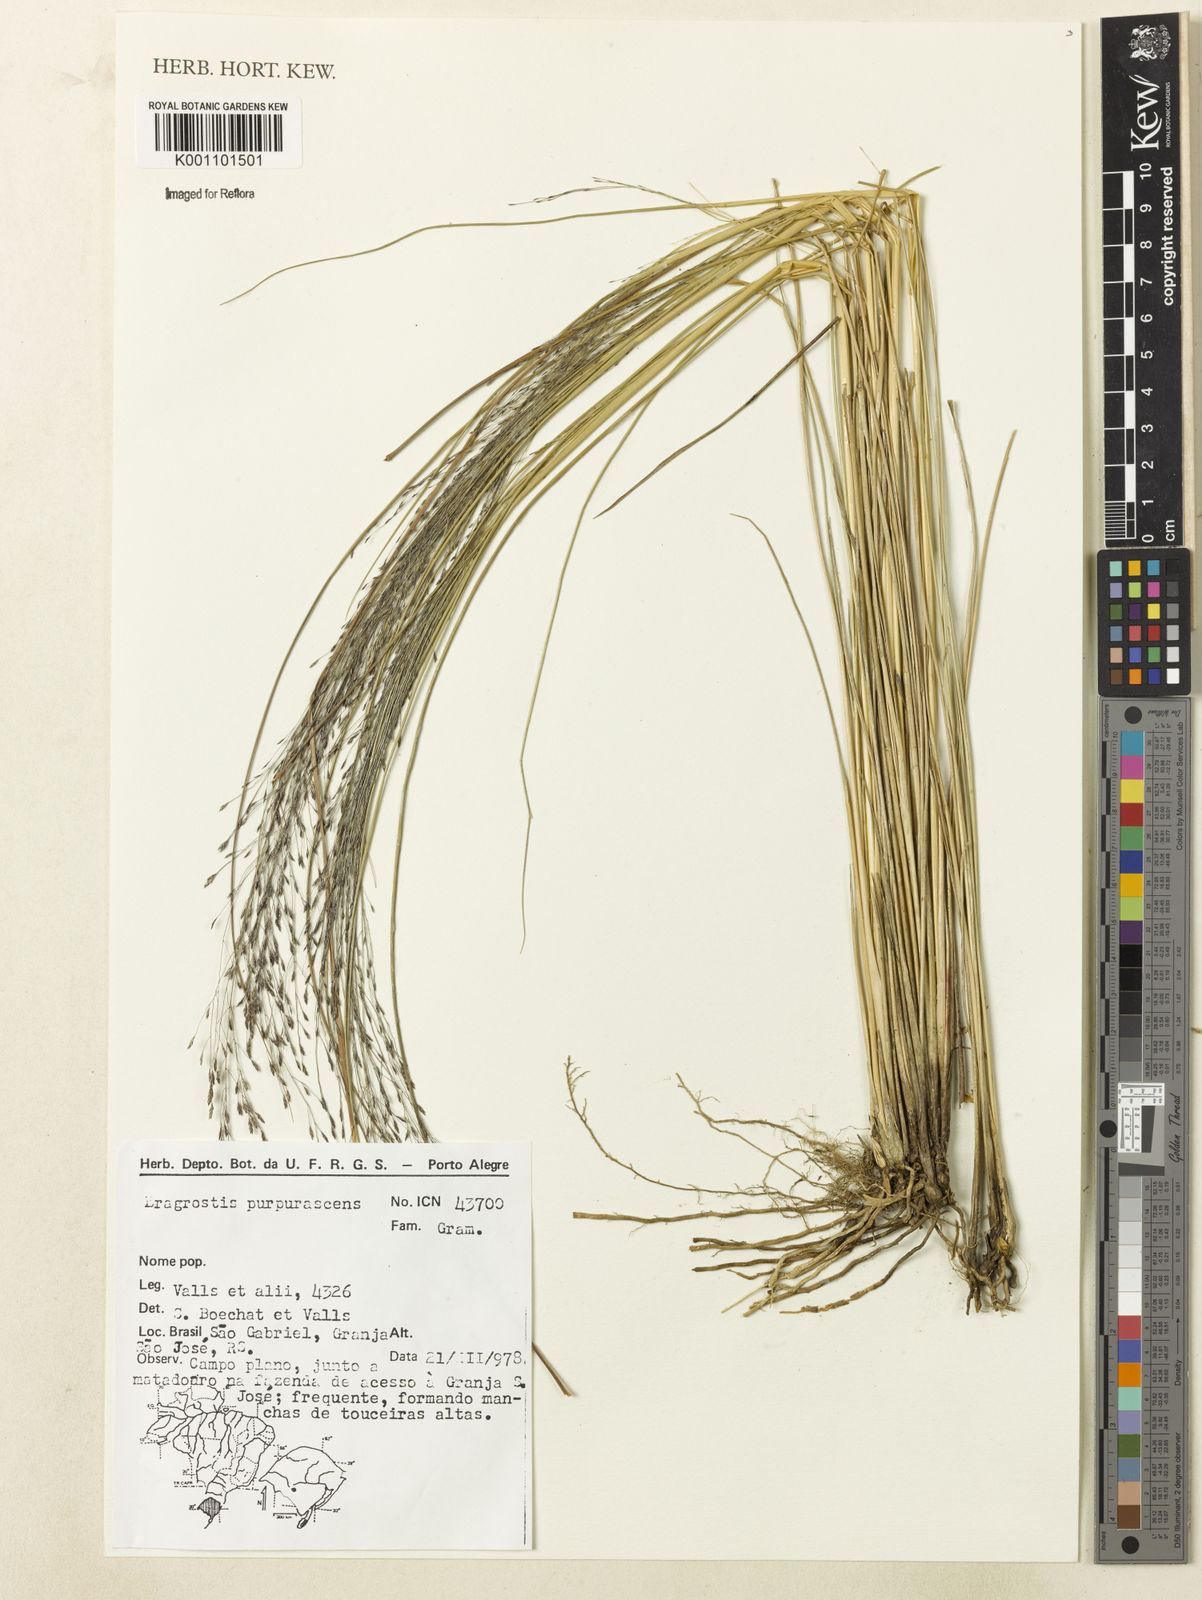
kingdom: Plantae
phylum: Tracheophyta
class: Liliopsida
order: Poales
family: Poaceae
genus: Eragrostis
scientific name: Eragrostis purpurascens
